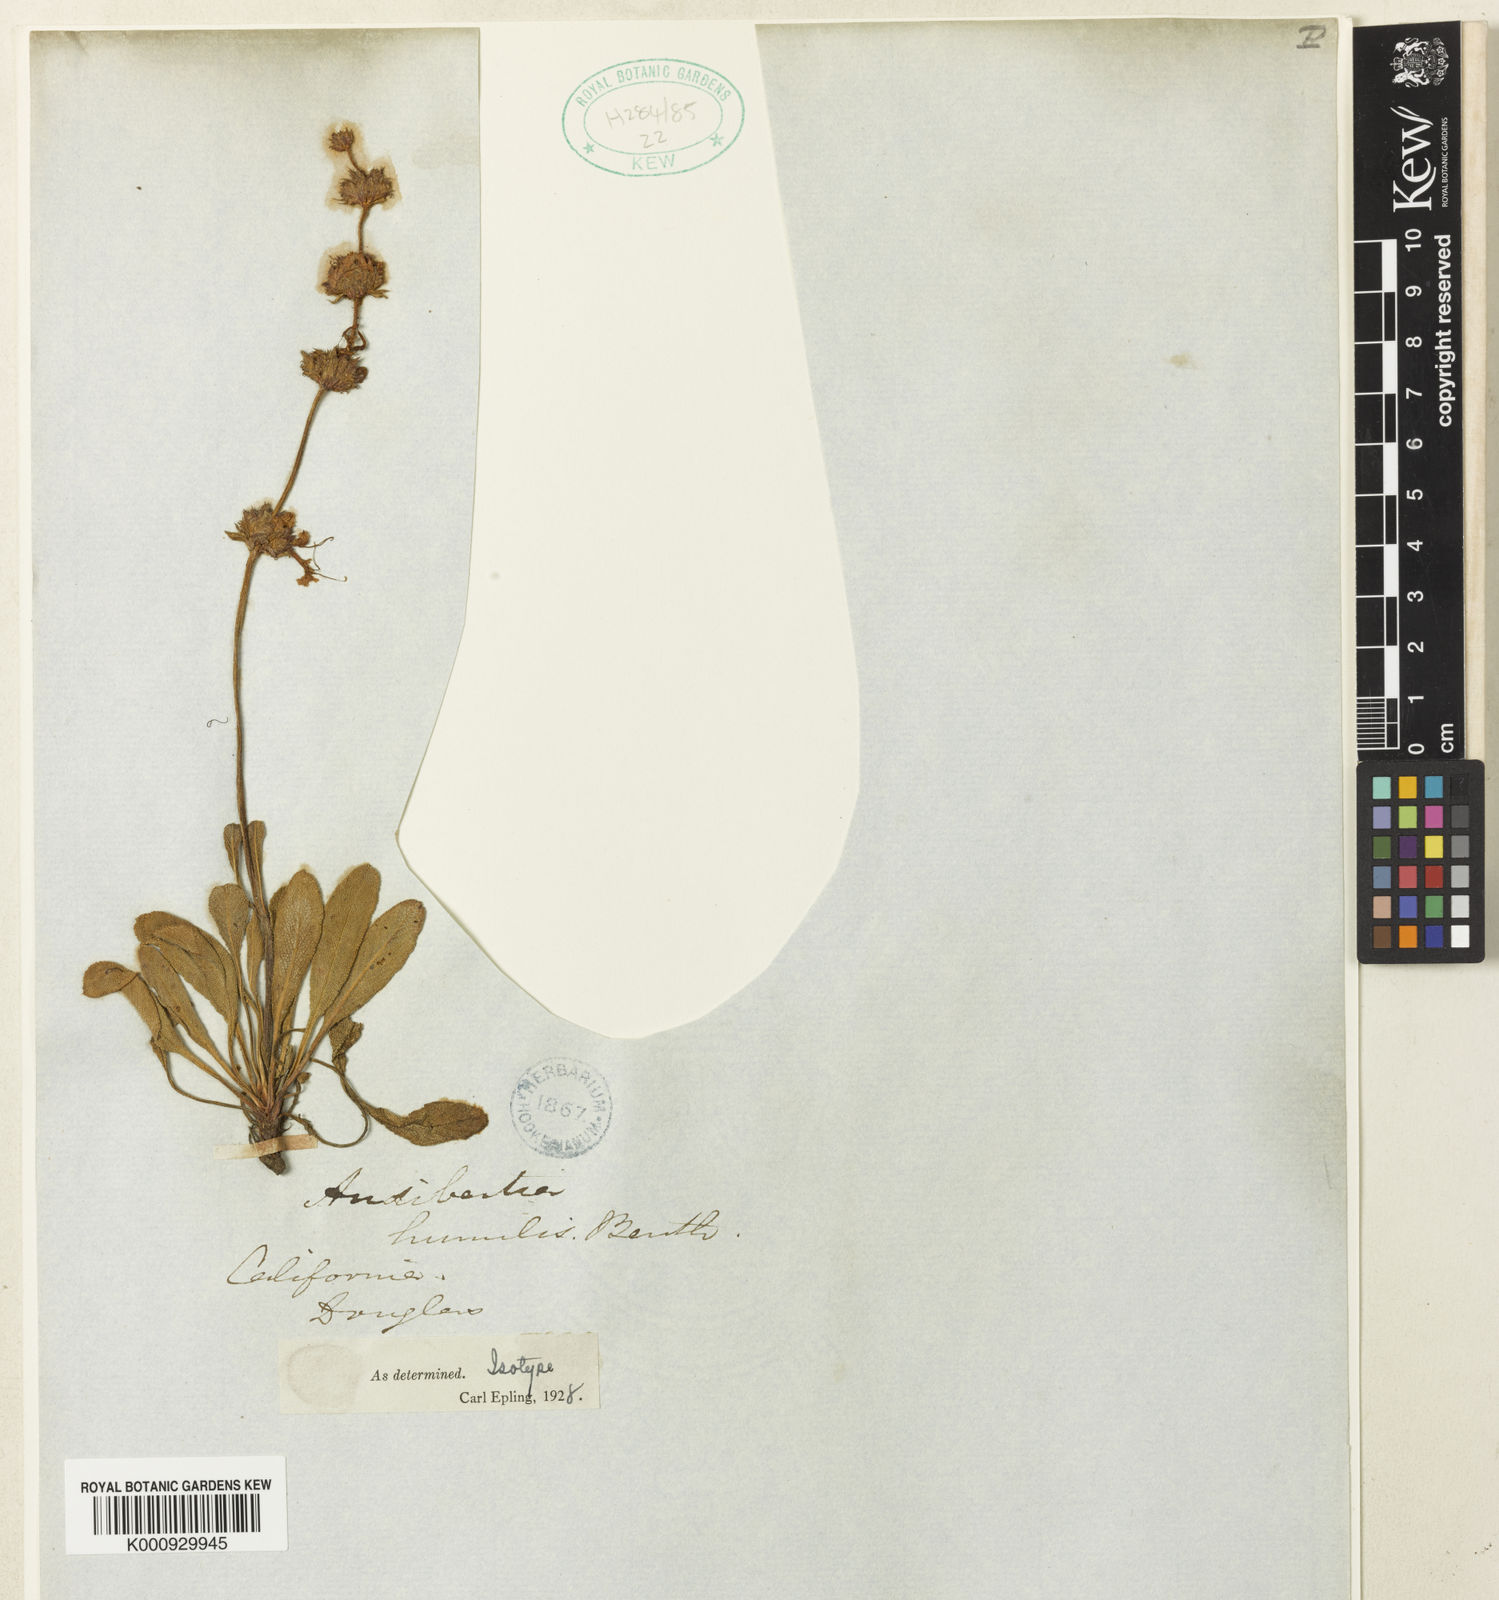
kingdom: Plantae
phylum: Tracheophyta
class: Magnoliopsida
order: Lamiales
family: Lamiaceae
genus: Salvia
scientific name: Salvia sonomensis
